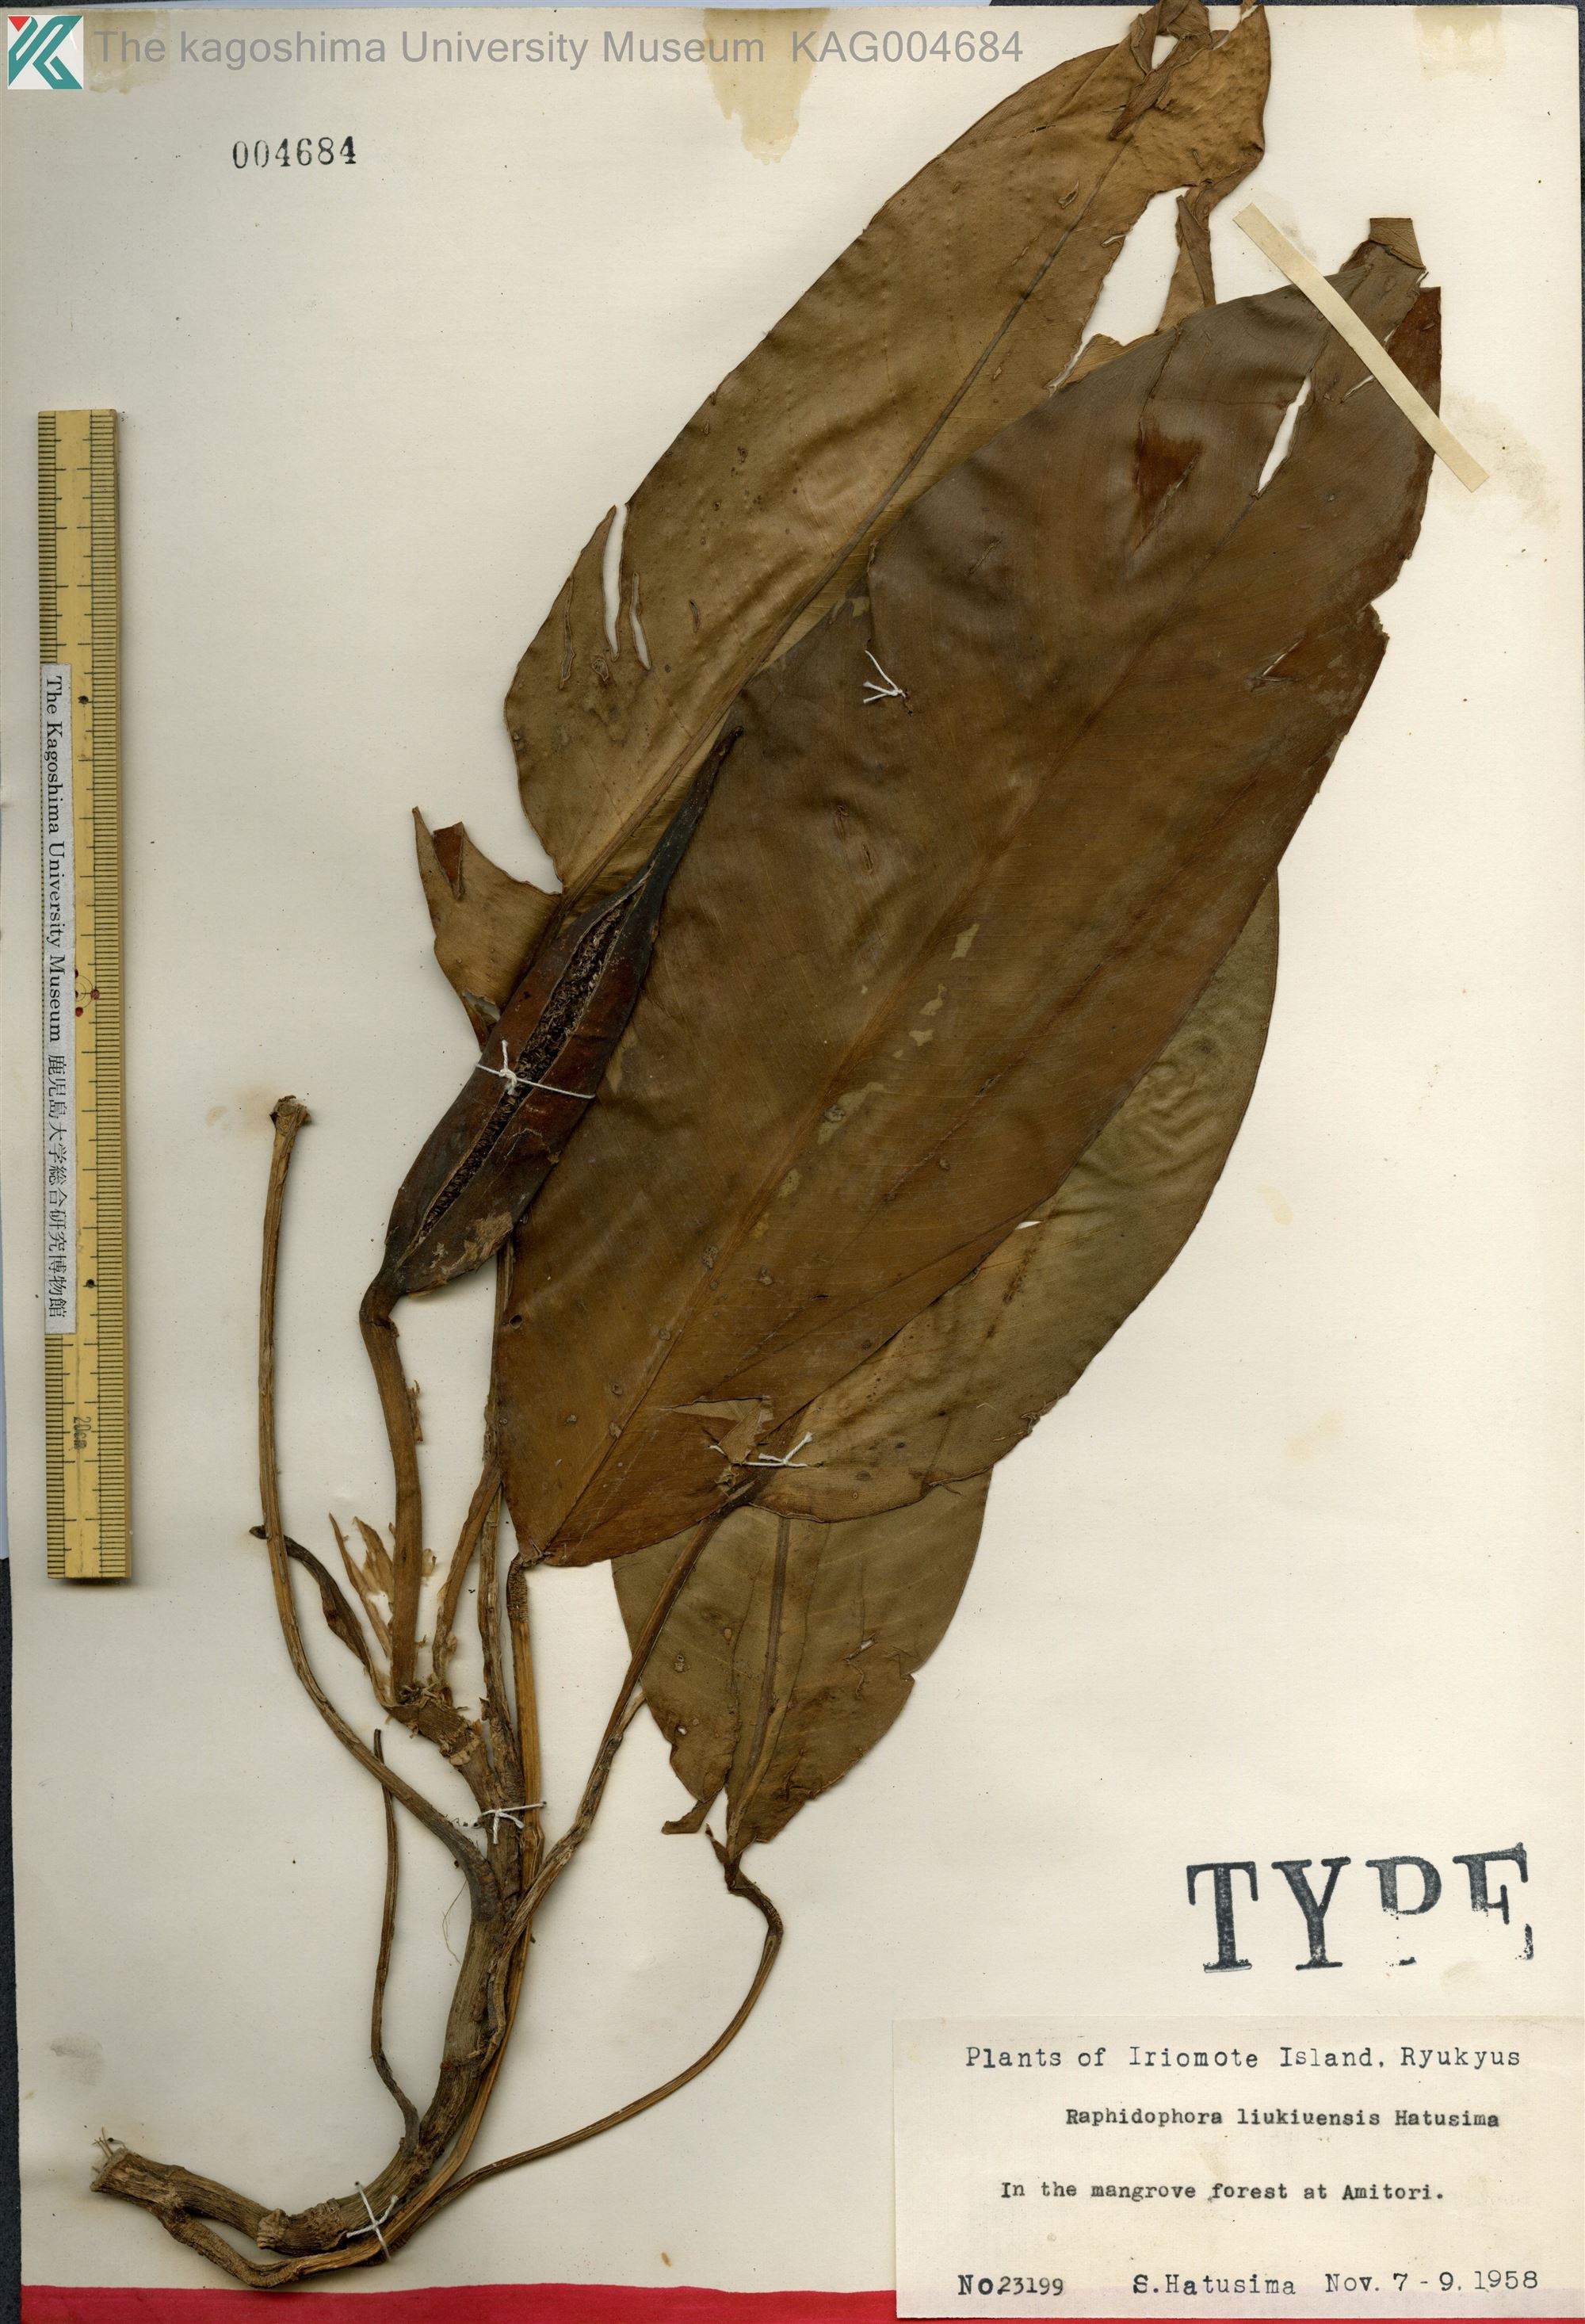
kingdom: Plantae
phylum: Tracheophyta
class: Liliopsida
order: Alismatales
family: Araceae
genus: Rhaphidophora
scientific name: Rhaphidophora liukiuensis
